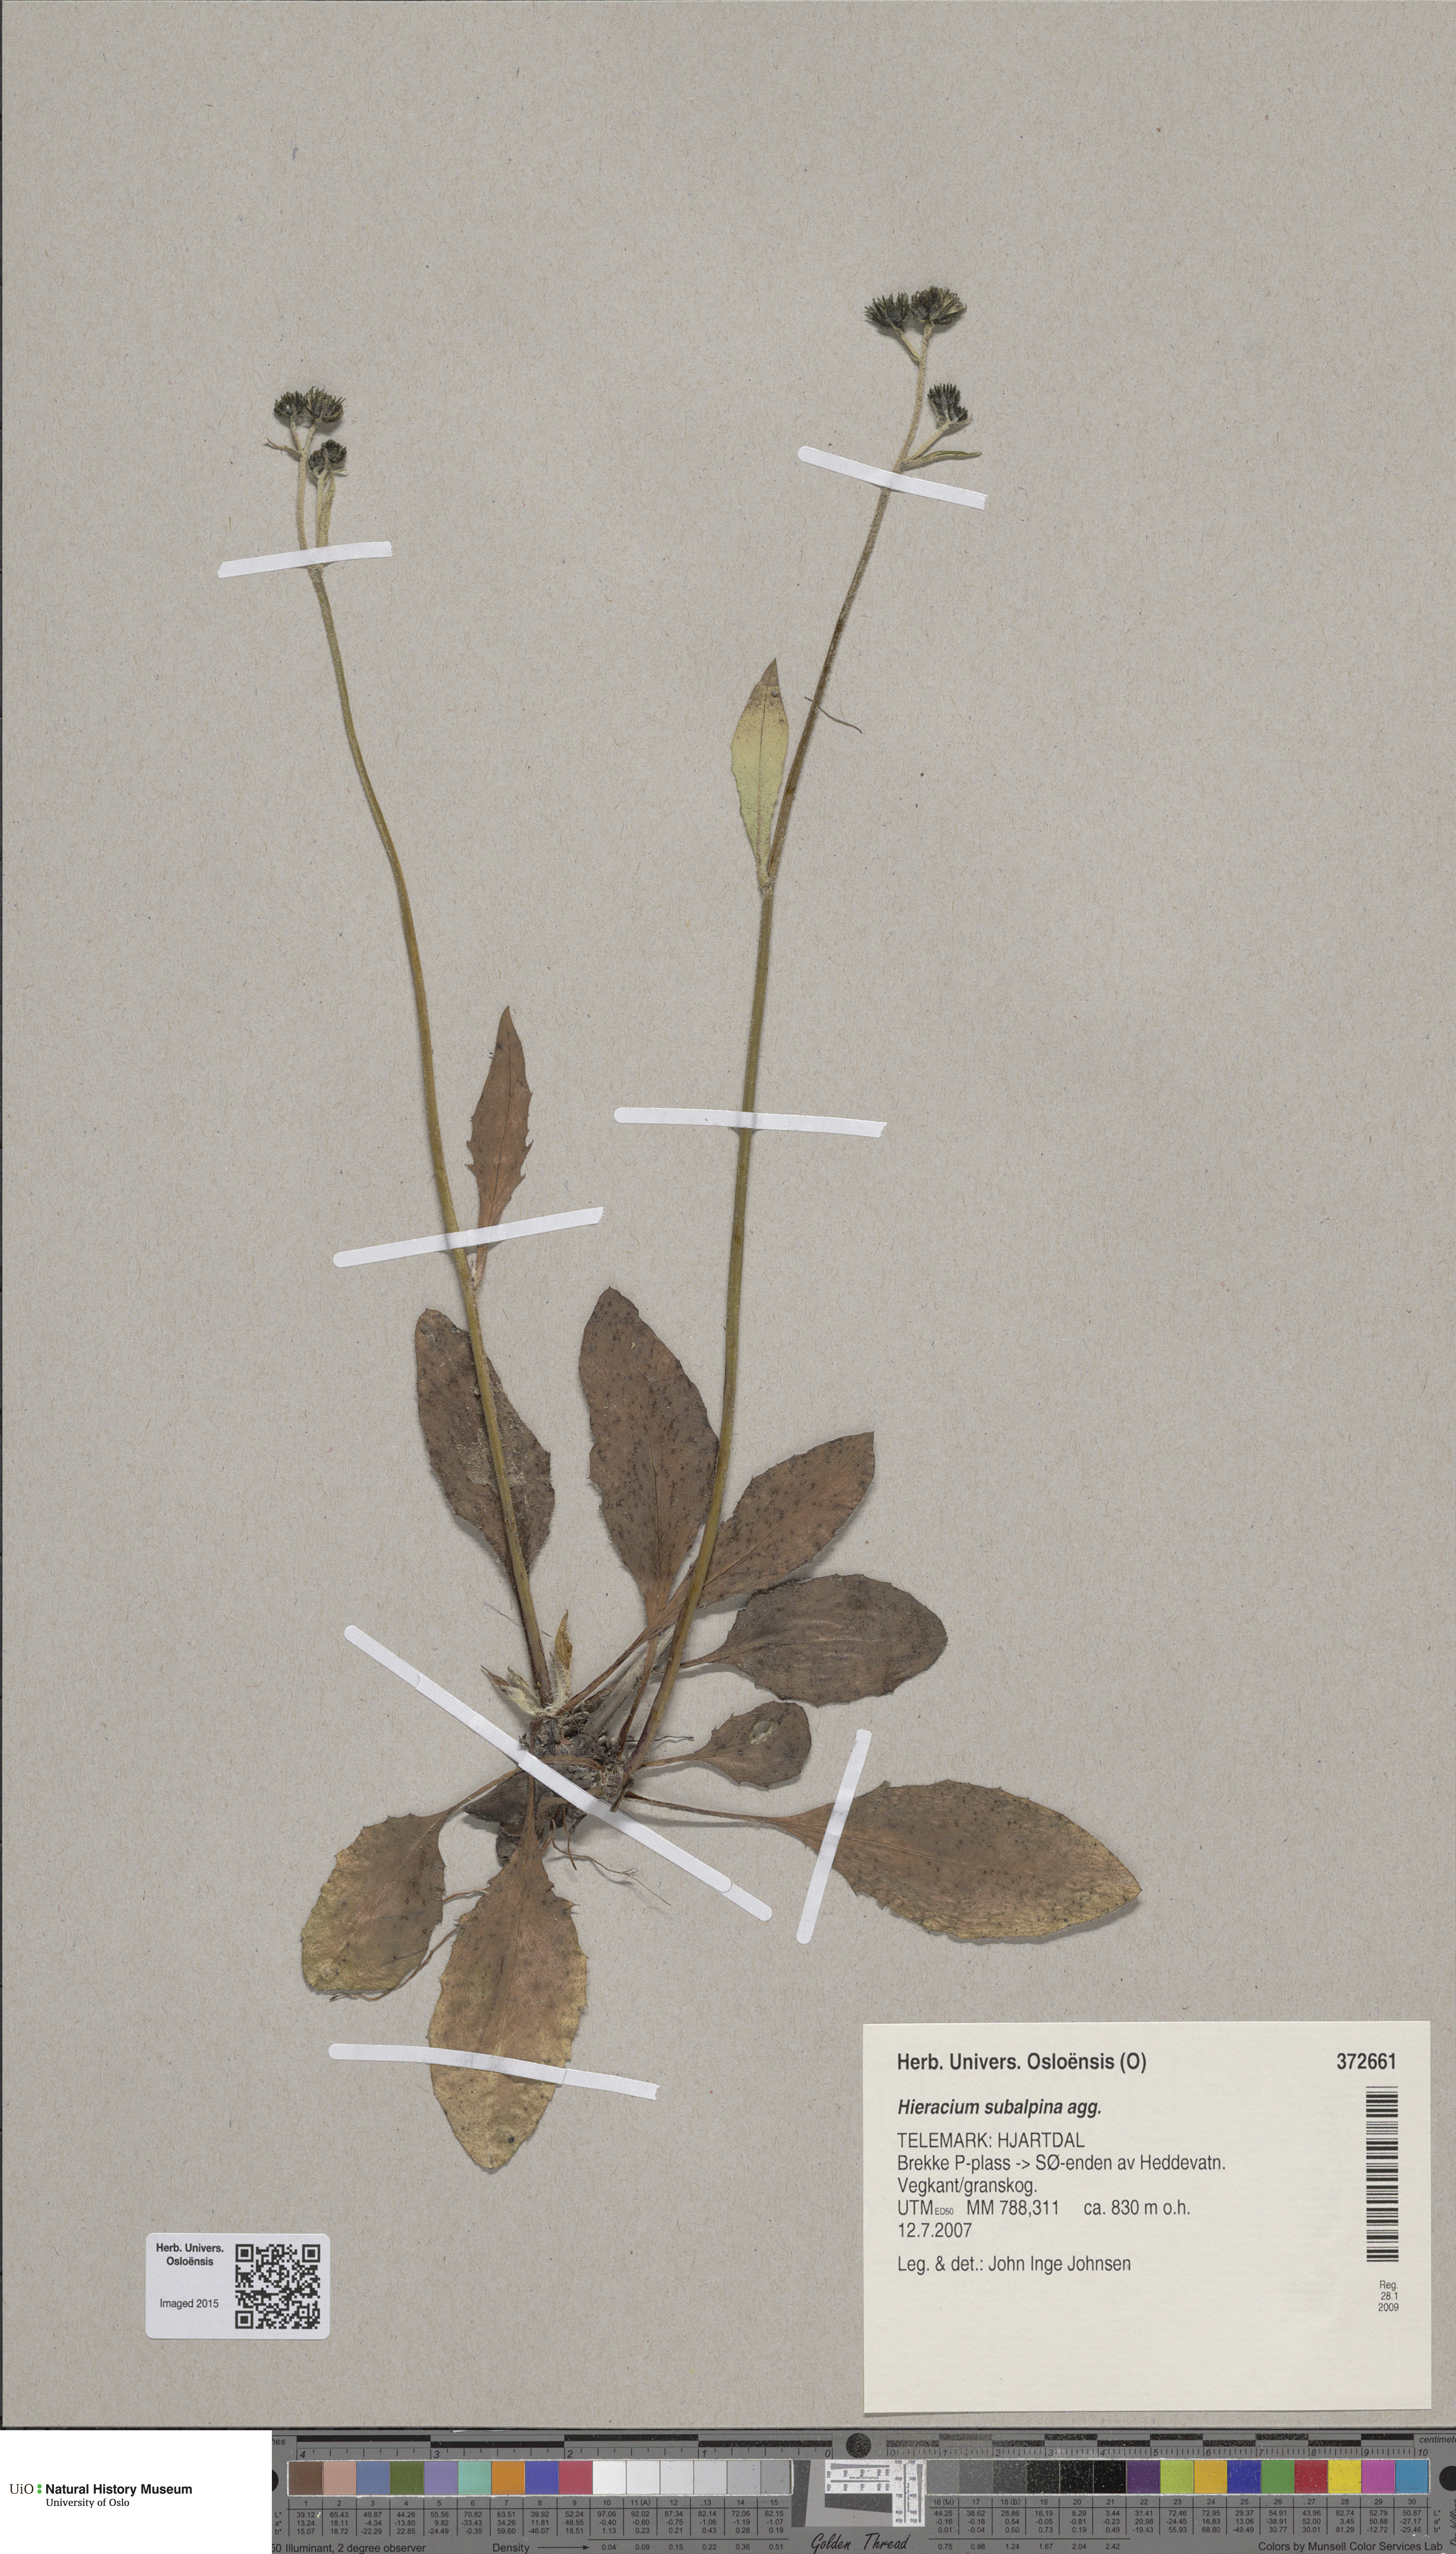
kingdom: Plantae
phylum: Tracheophyta
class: Magnoliopsida
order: Asterales
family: Asteraceae
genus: Hieracium
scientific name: Hieracium umbrosum
